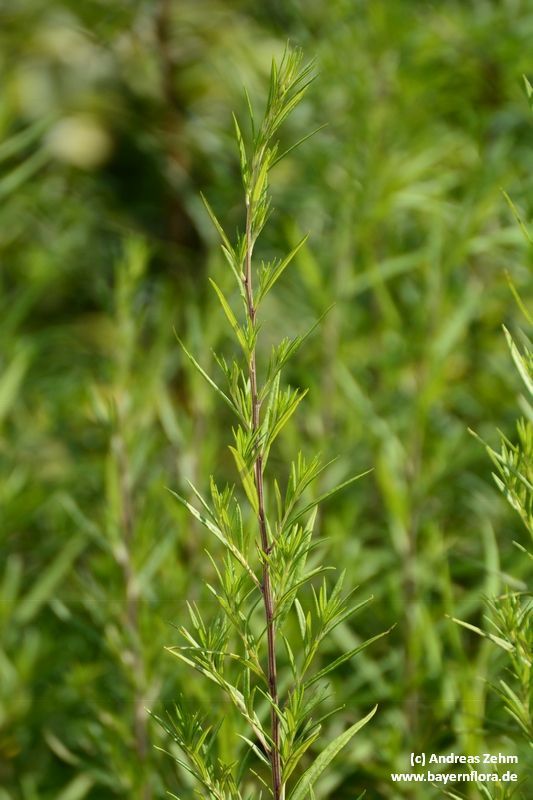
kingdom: Plantae
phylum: Tracheophyta
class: Magnoliopsida
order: Asterales
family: Asteraceae
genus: Artemisia
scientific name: Artemisia verlotiorum
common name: Chinese mugwort
